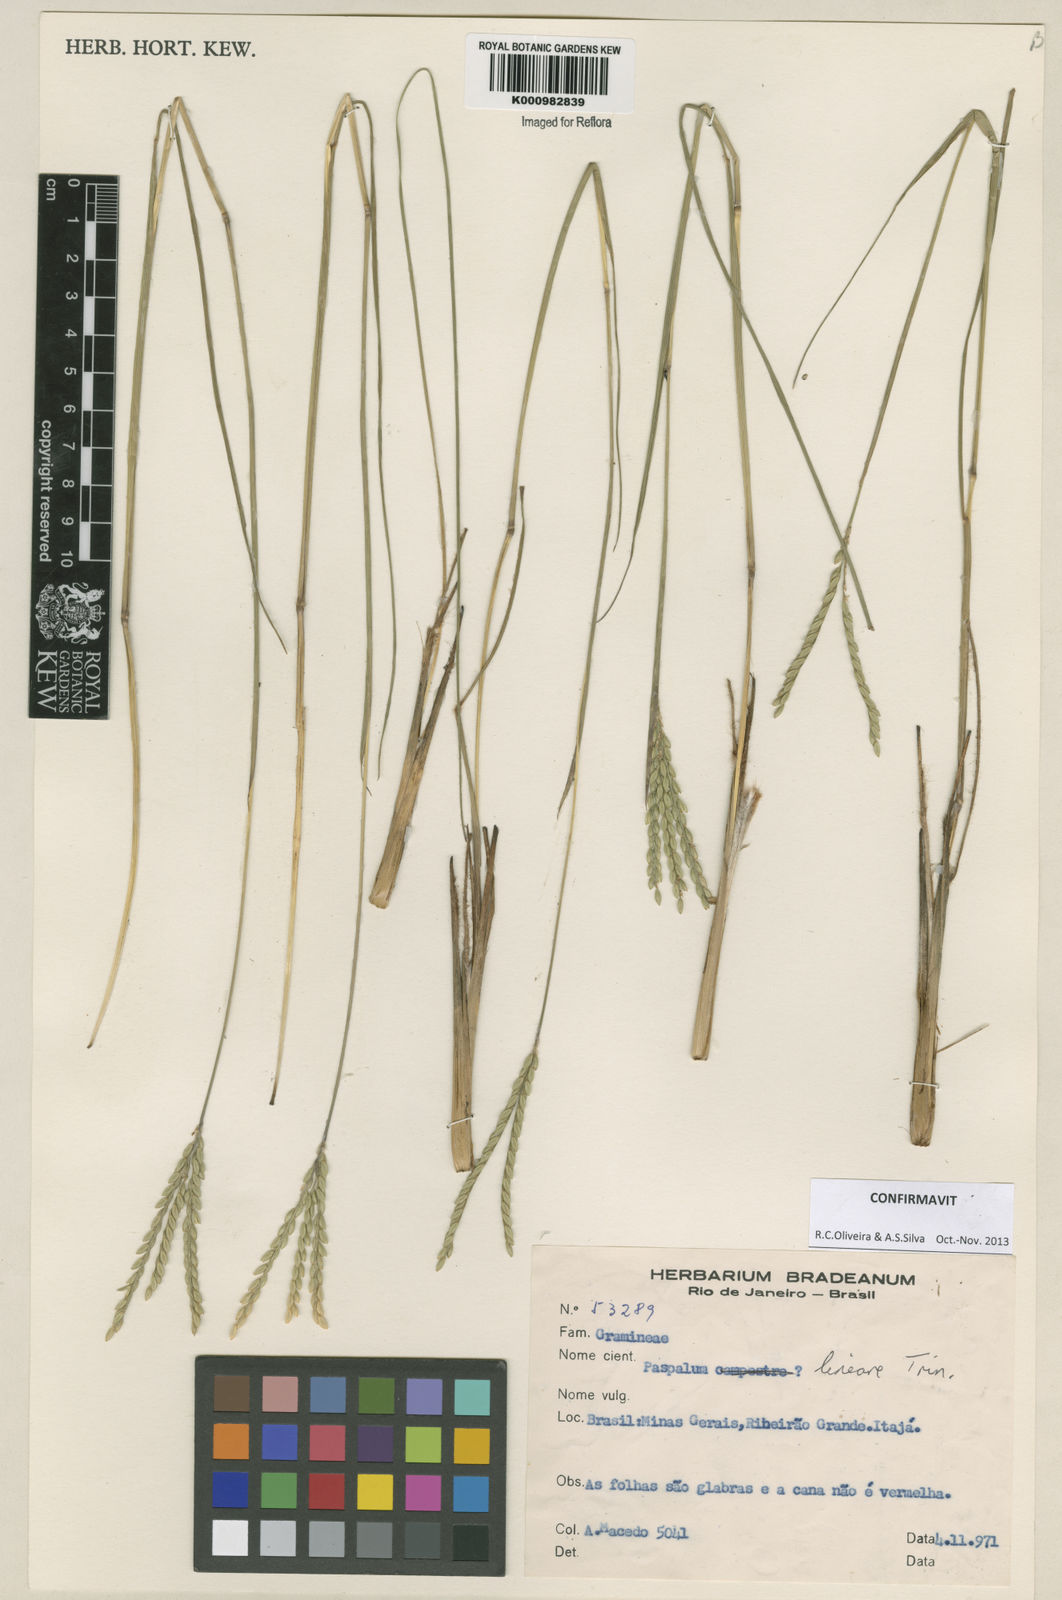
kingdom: Plantae
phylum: Tracheophyta
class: Liliopsida
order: Poales
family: Poaceae
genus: Paspalum
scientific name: Paspalum lineare
